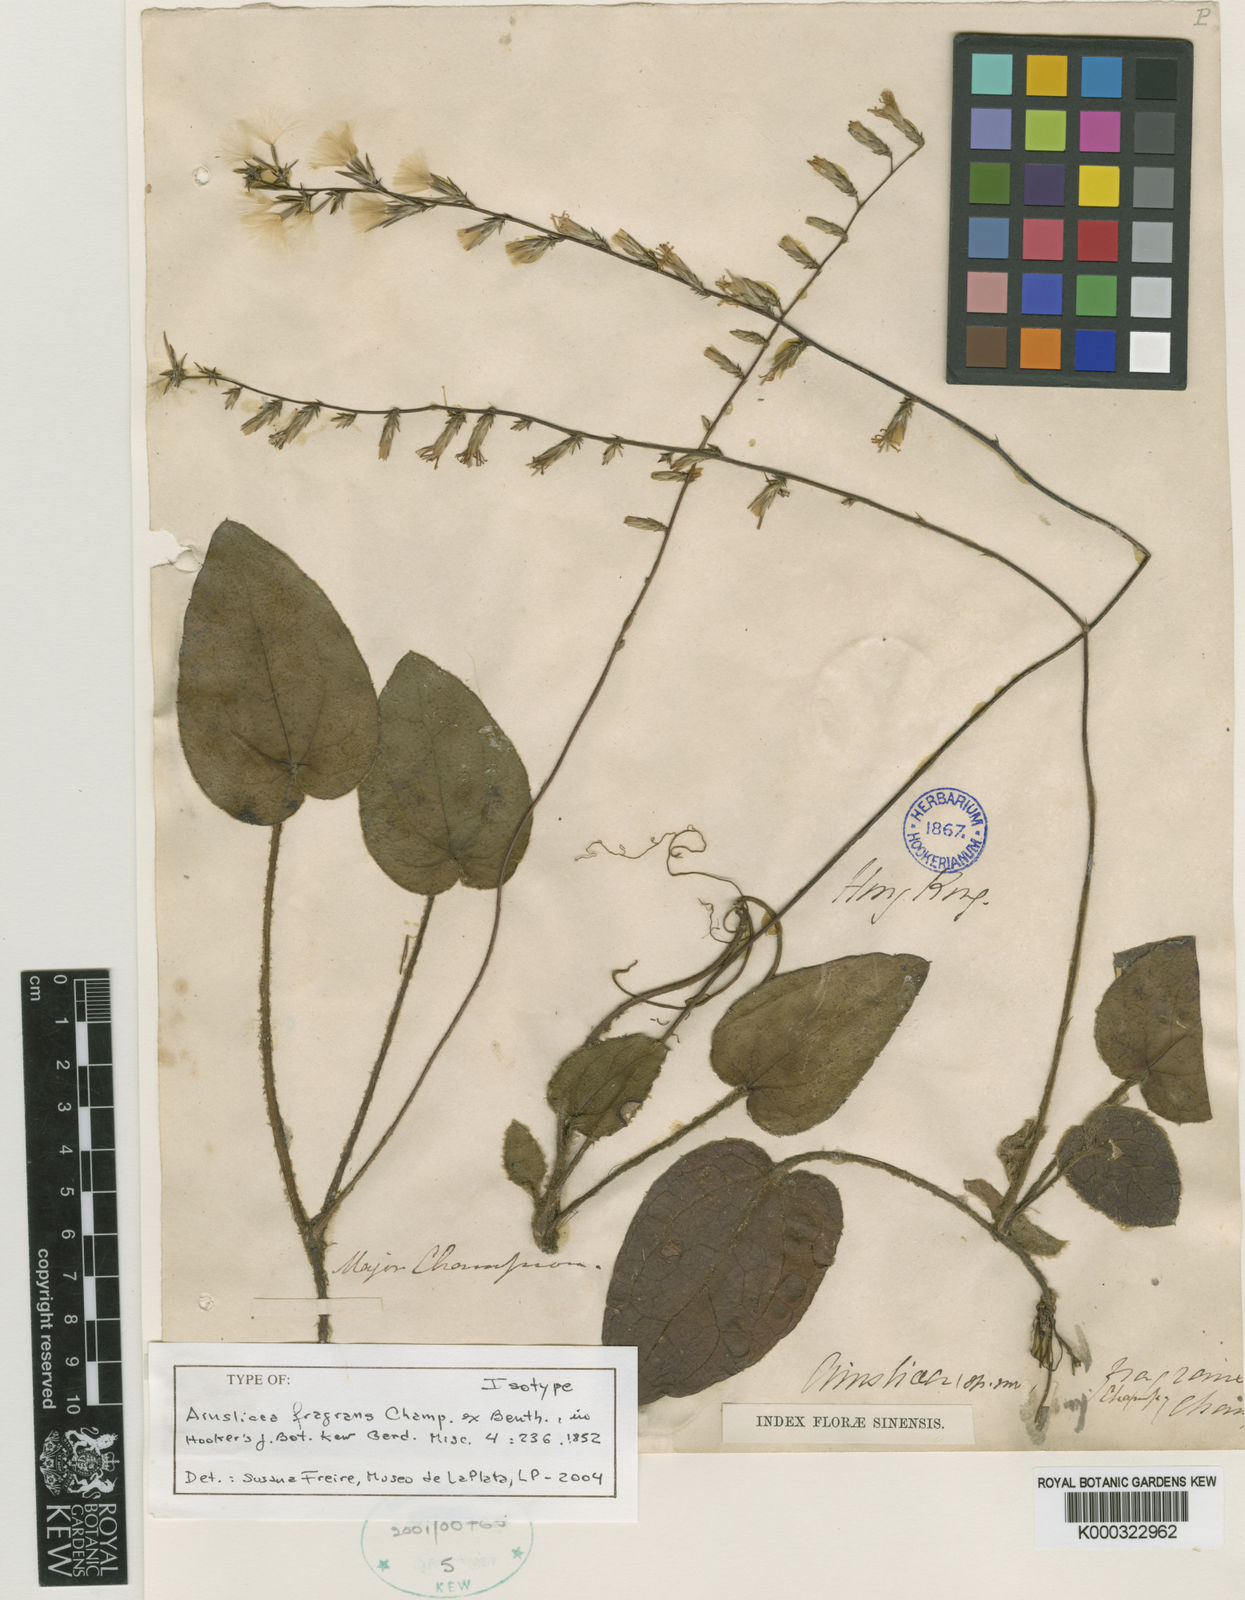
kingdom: Plantae
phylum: Tracheophyta
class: Magnoliopsida
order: Asterales
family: Asteraceae
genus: Ainsliaea
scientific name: Ainsliaea fragrans
